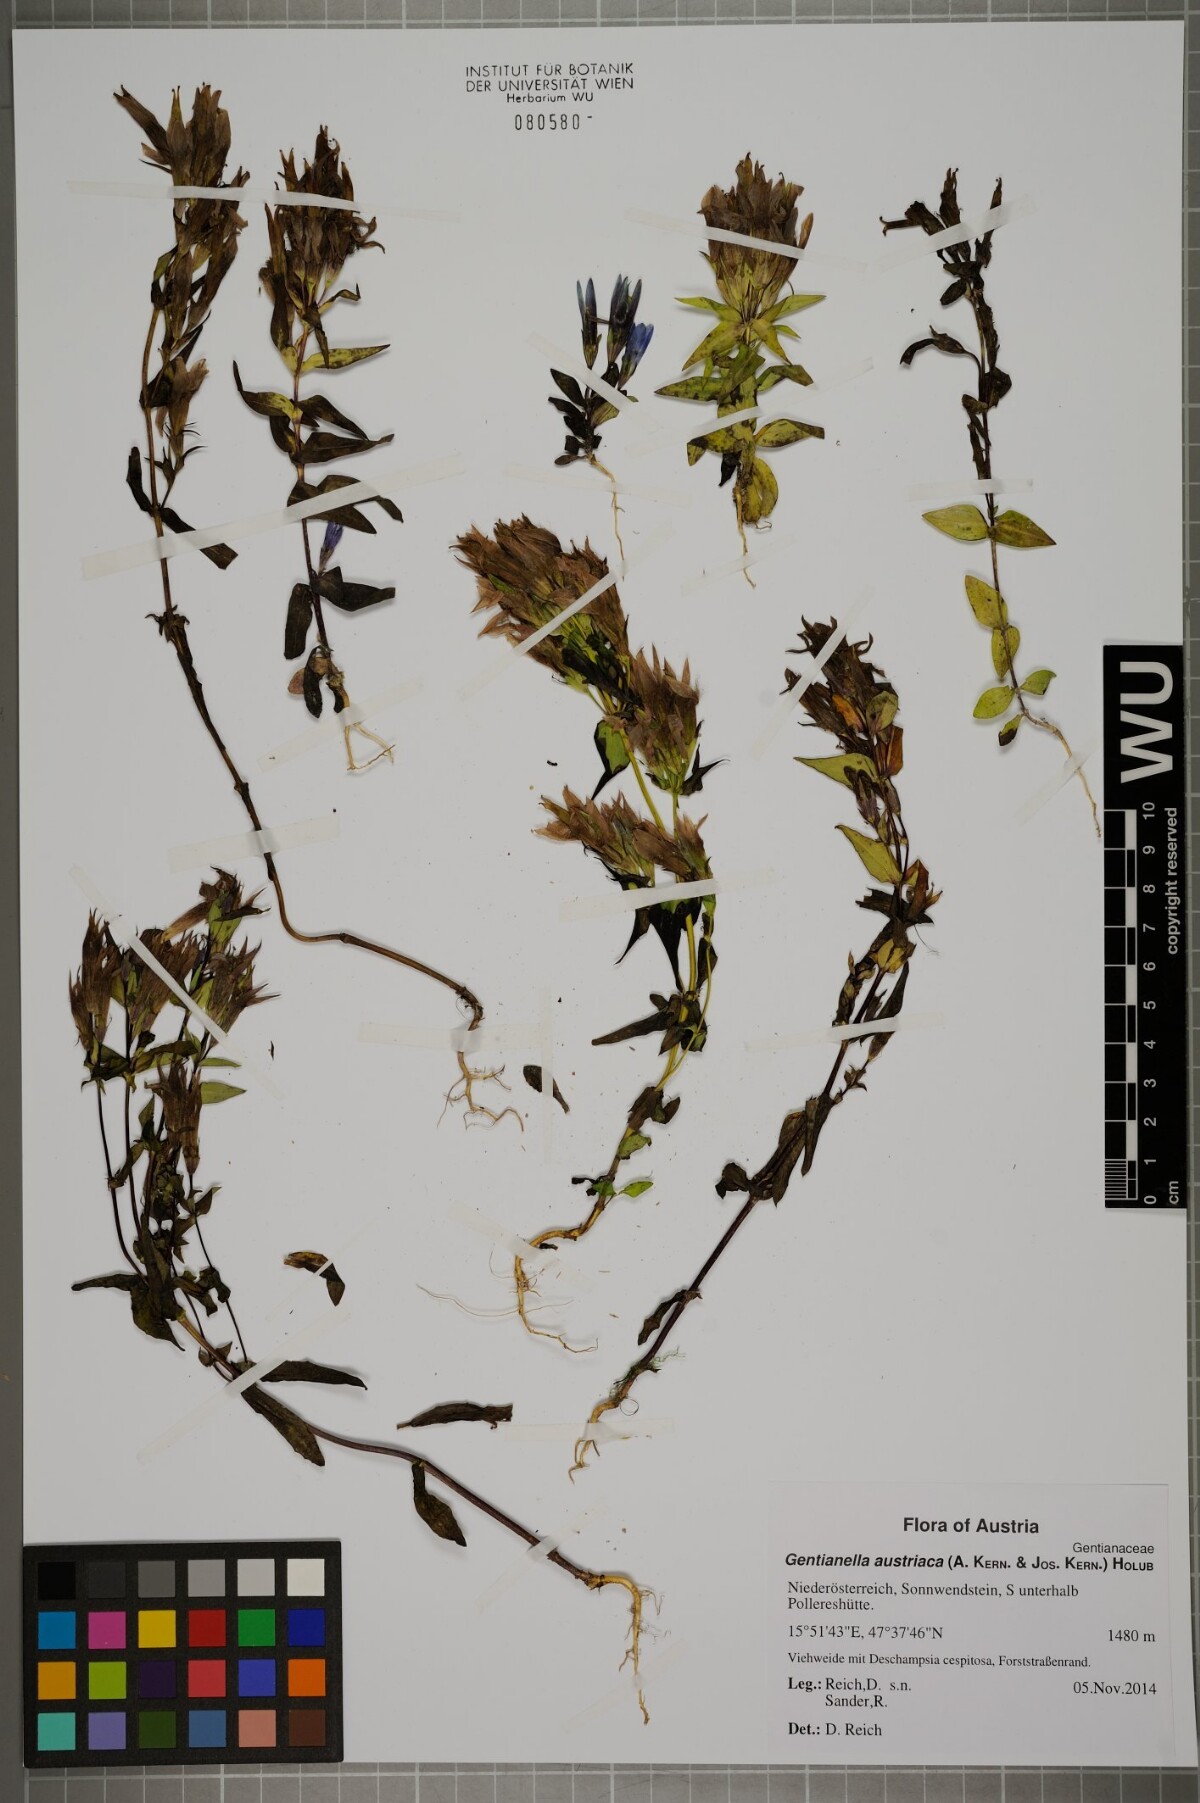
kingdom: Plantae
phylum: Tracheophyta
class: Magnoliopsida
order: Gentianales
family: Gentianaceae
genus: Gentianella
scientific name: Gentianella austriaca
